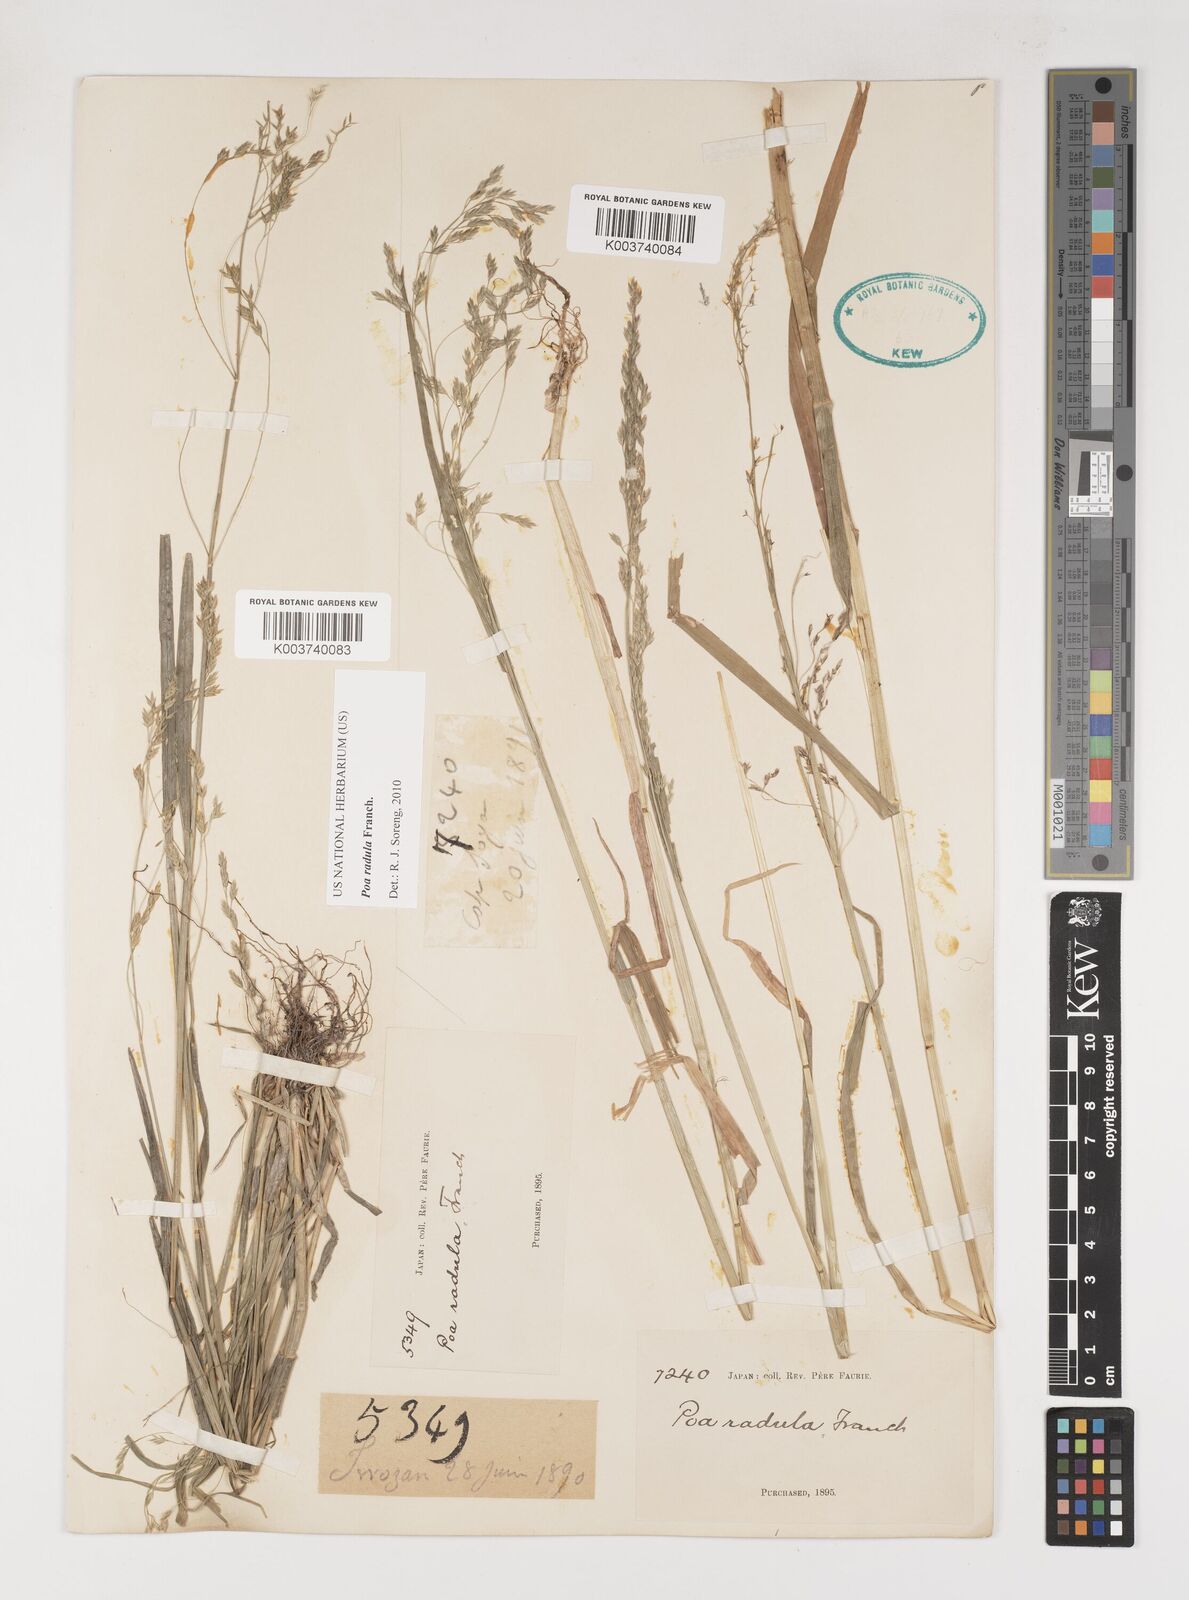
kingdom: Plantae
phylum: Tracheophyta
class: Liliopsida
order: Poales
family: Poaceae
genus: Poa
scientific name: Poa radula
